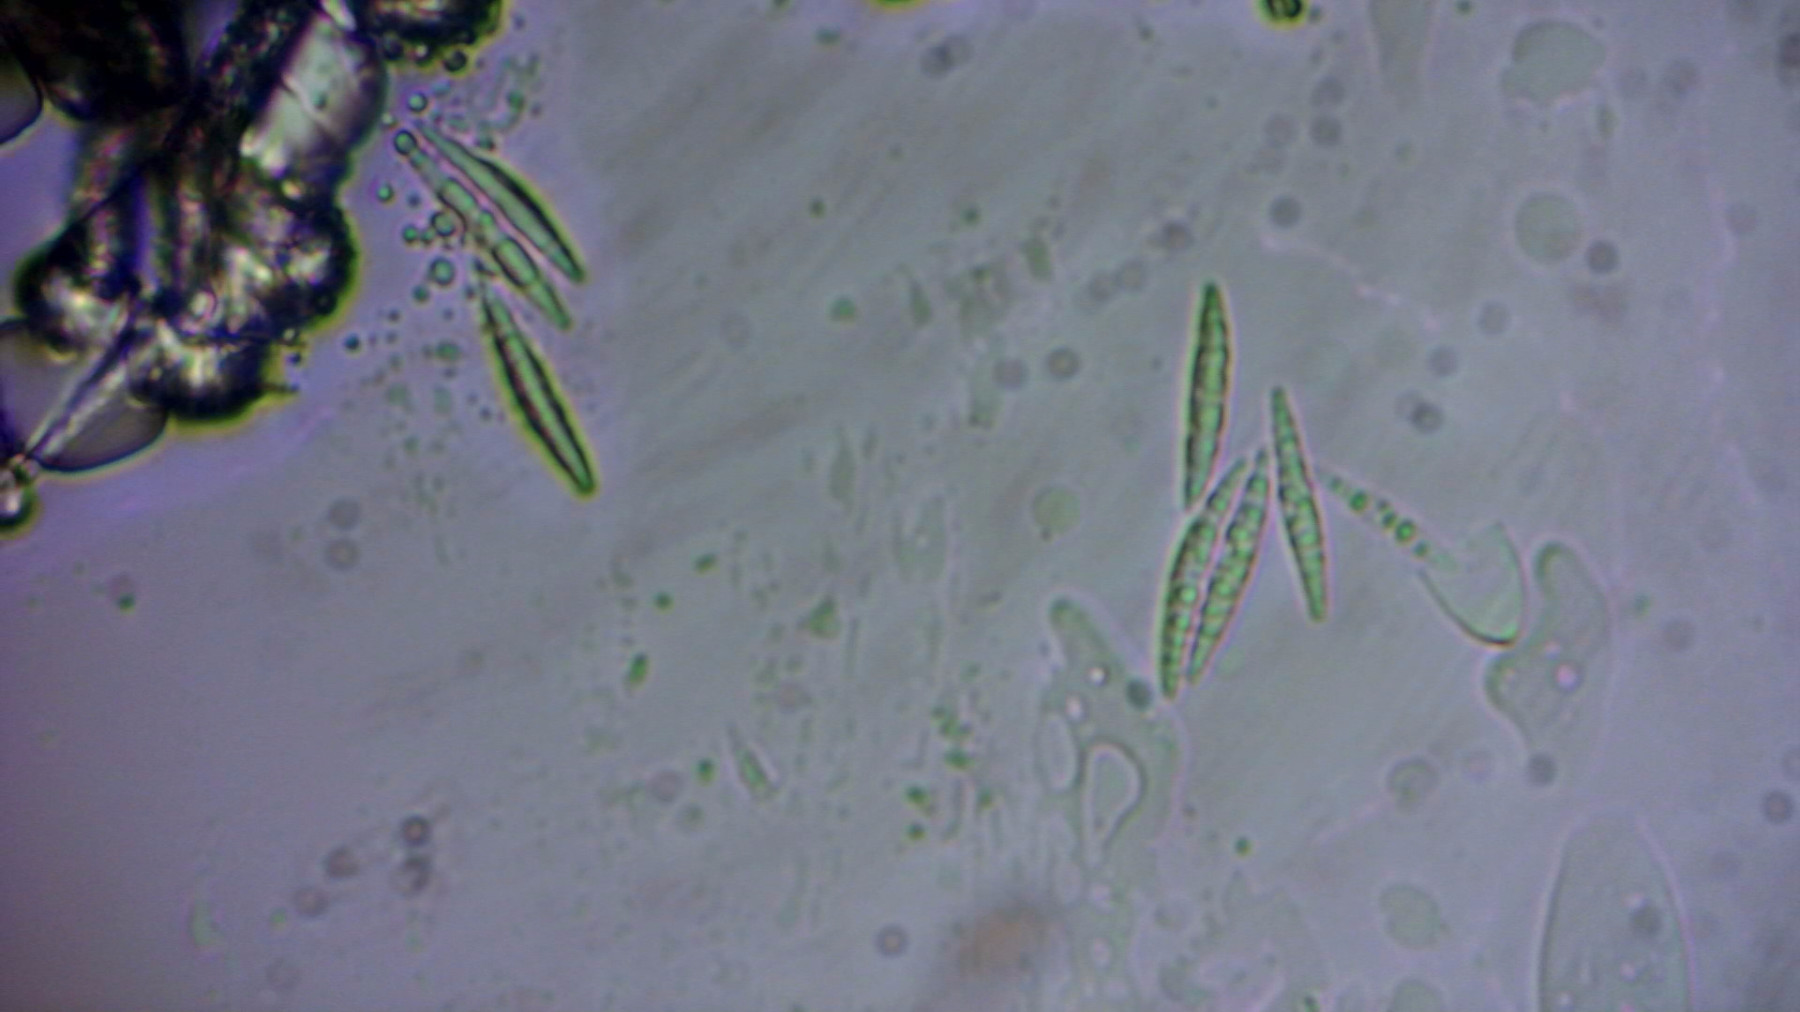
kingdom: Fungi
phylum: Ascomycota
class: Leotiomycetes
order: Helotiales
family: Lachnaceae
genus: Incrucipulum
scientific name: Incrucipulum ciliare
